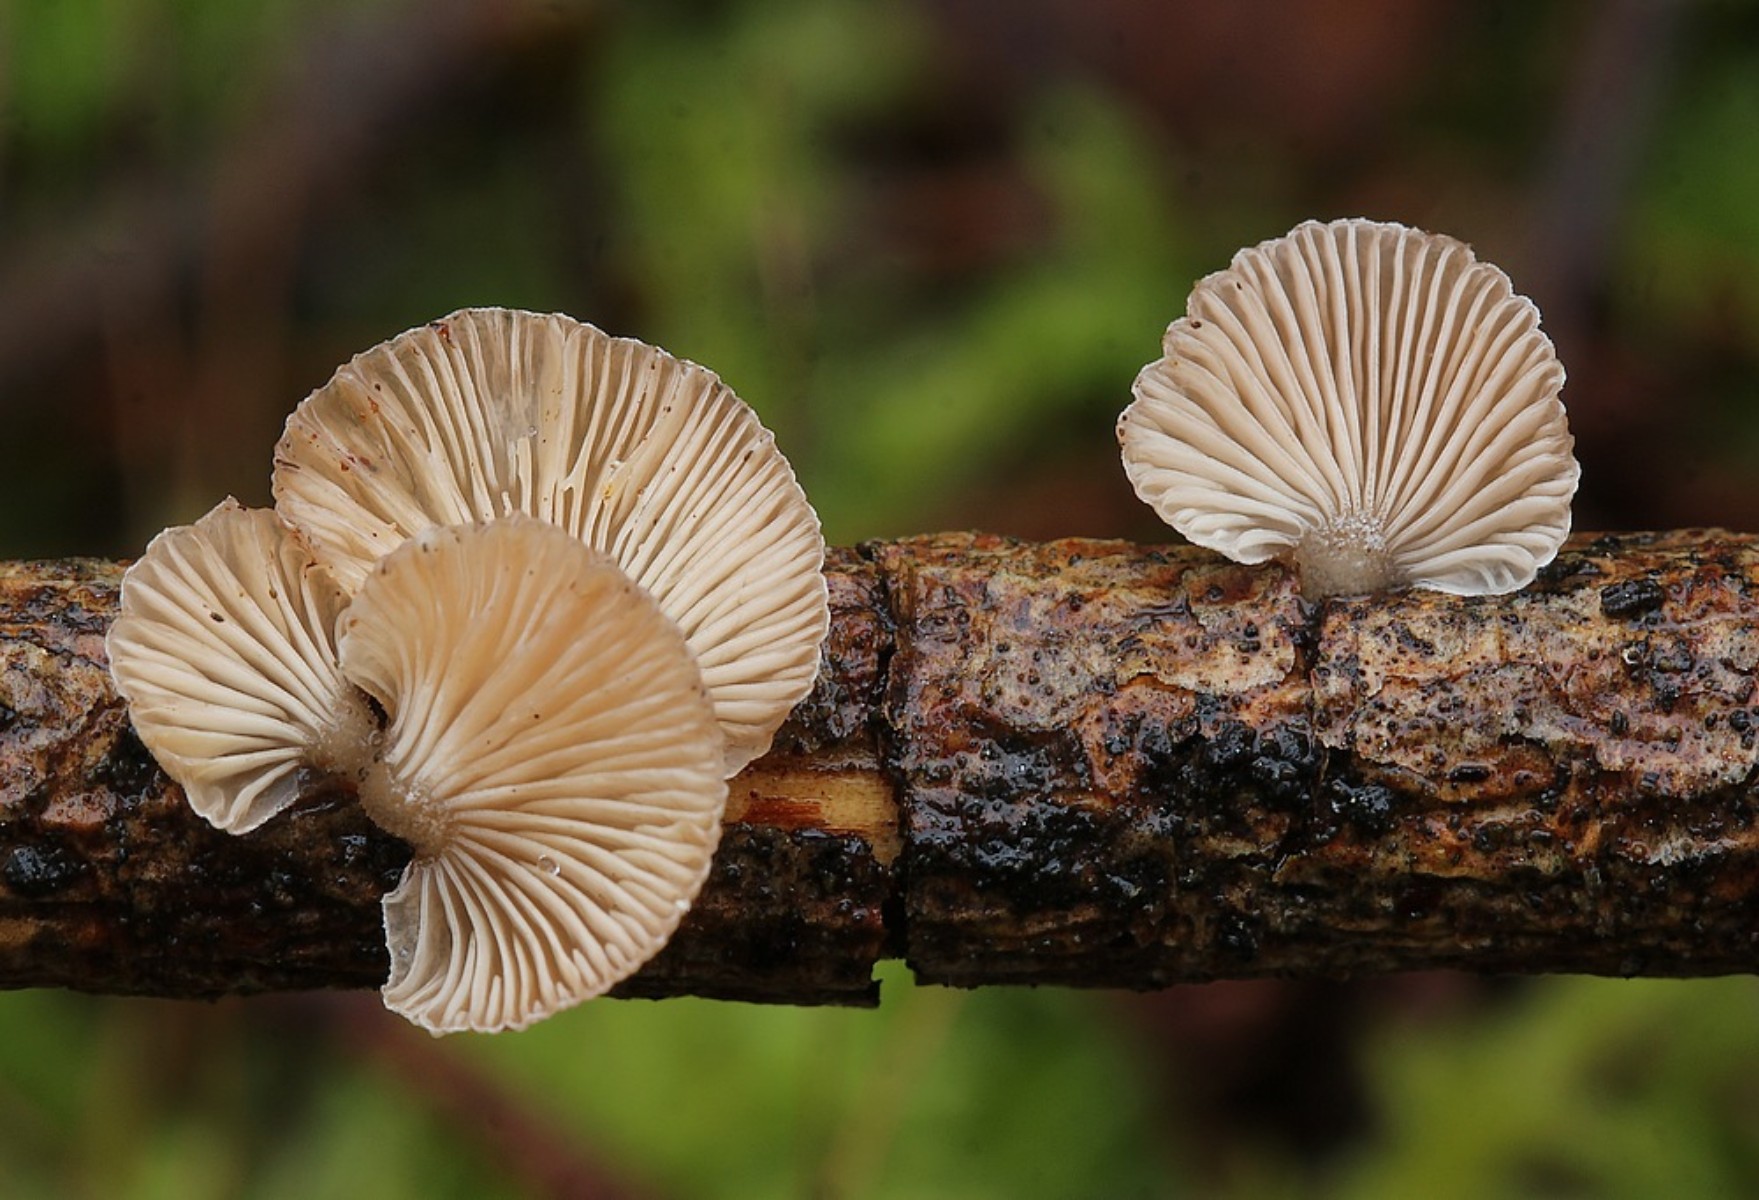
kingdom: Fungi
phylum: Basidiomycota
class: Agaricomycetes
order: Agaricales
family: Mycenaceae
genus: Panellus
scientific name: Panellus mitis
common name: mild epaulethat
